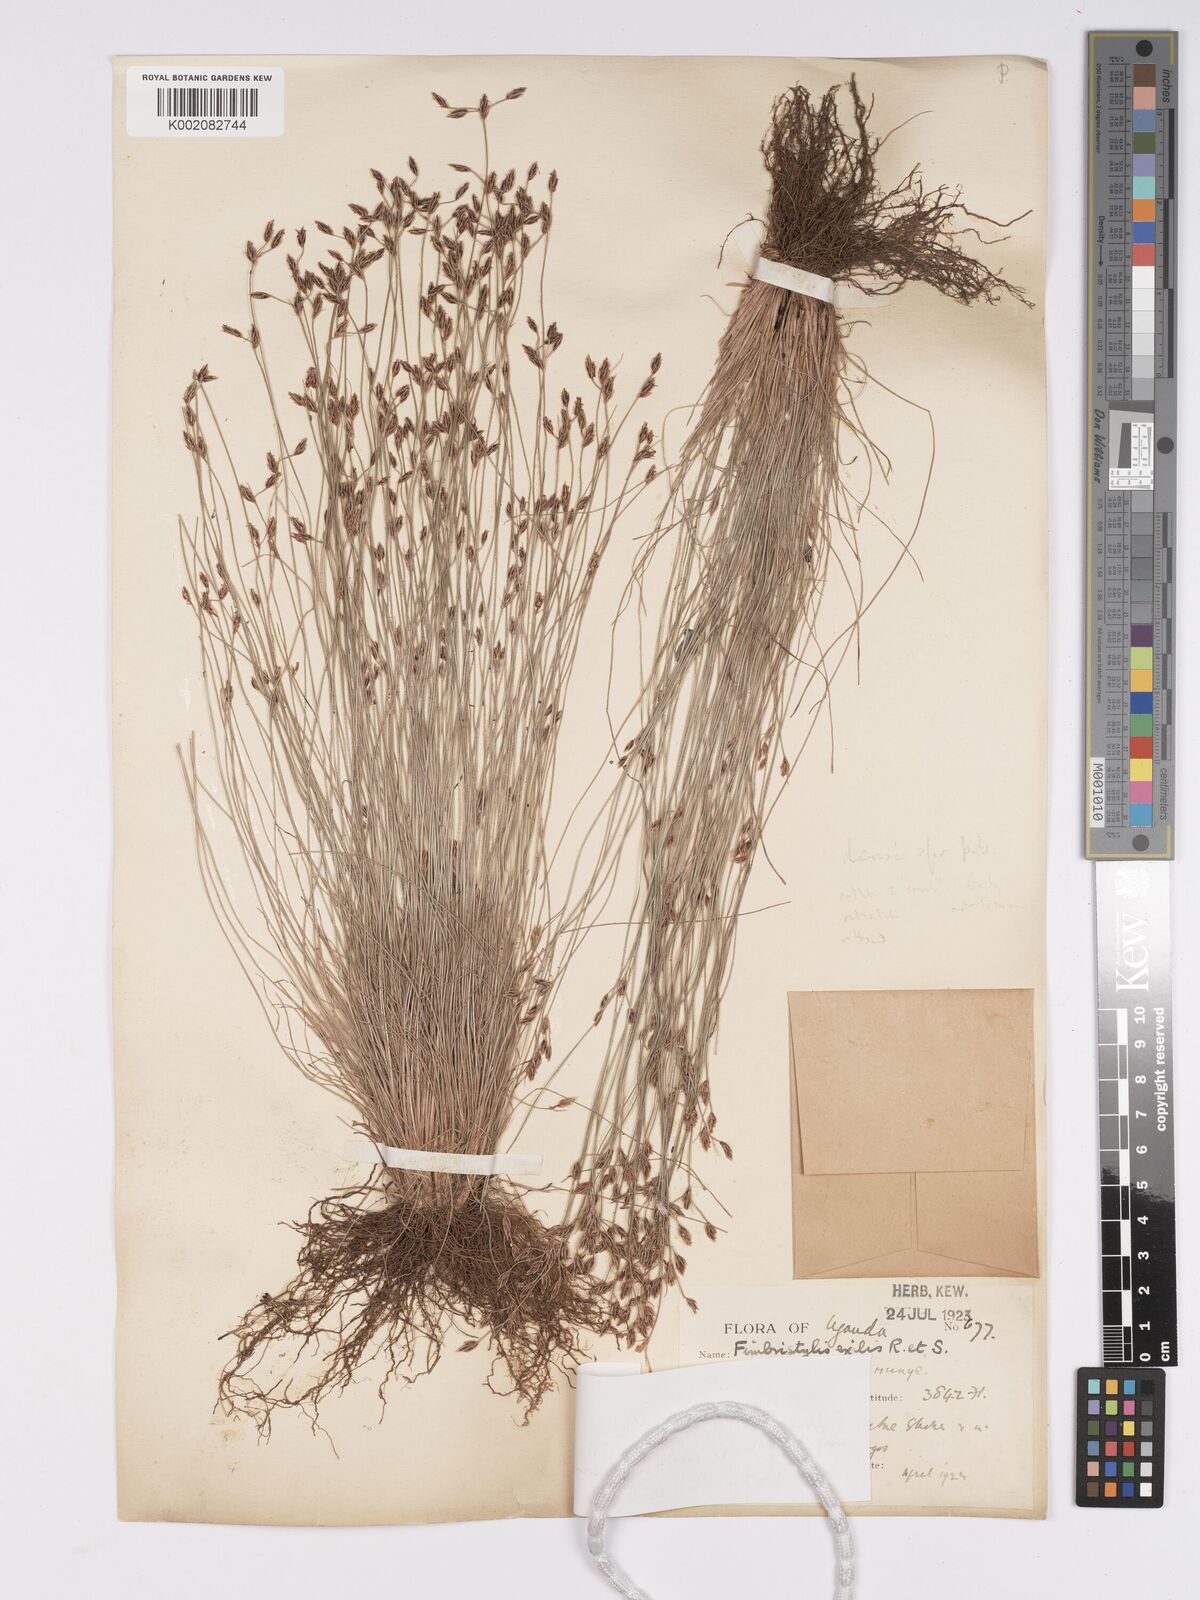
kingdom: Plantae
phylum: Tracheophyta
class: Liliopsida
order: Poales
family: Cyperaceae
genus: Bulbostylis
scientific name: Bulbostylis hispidula
